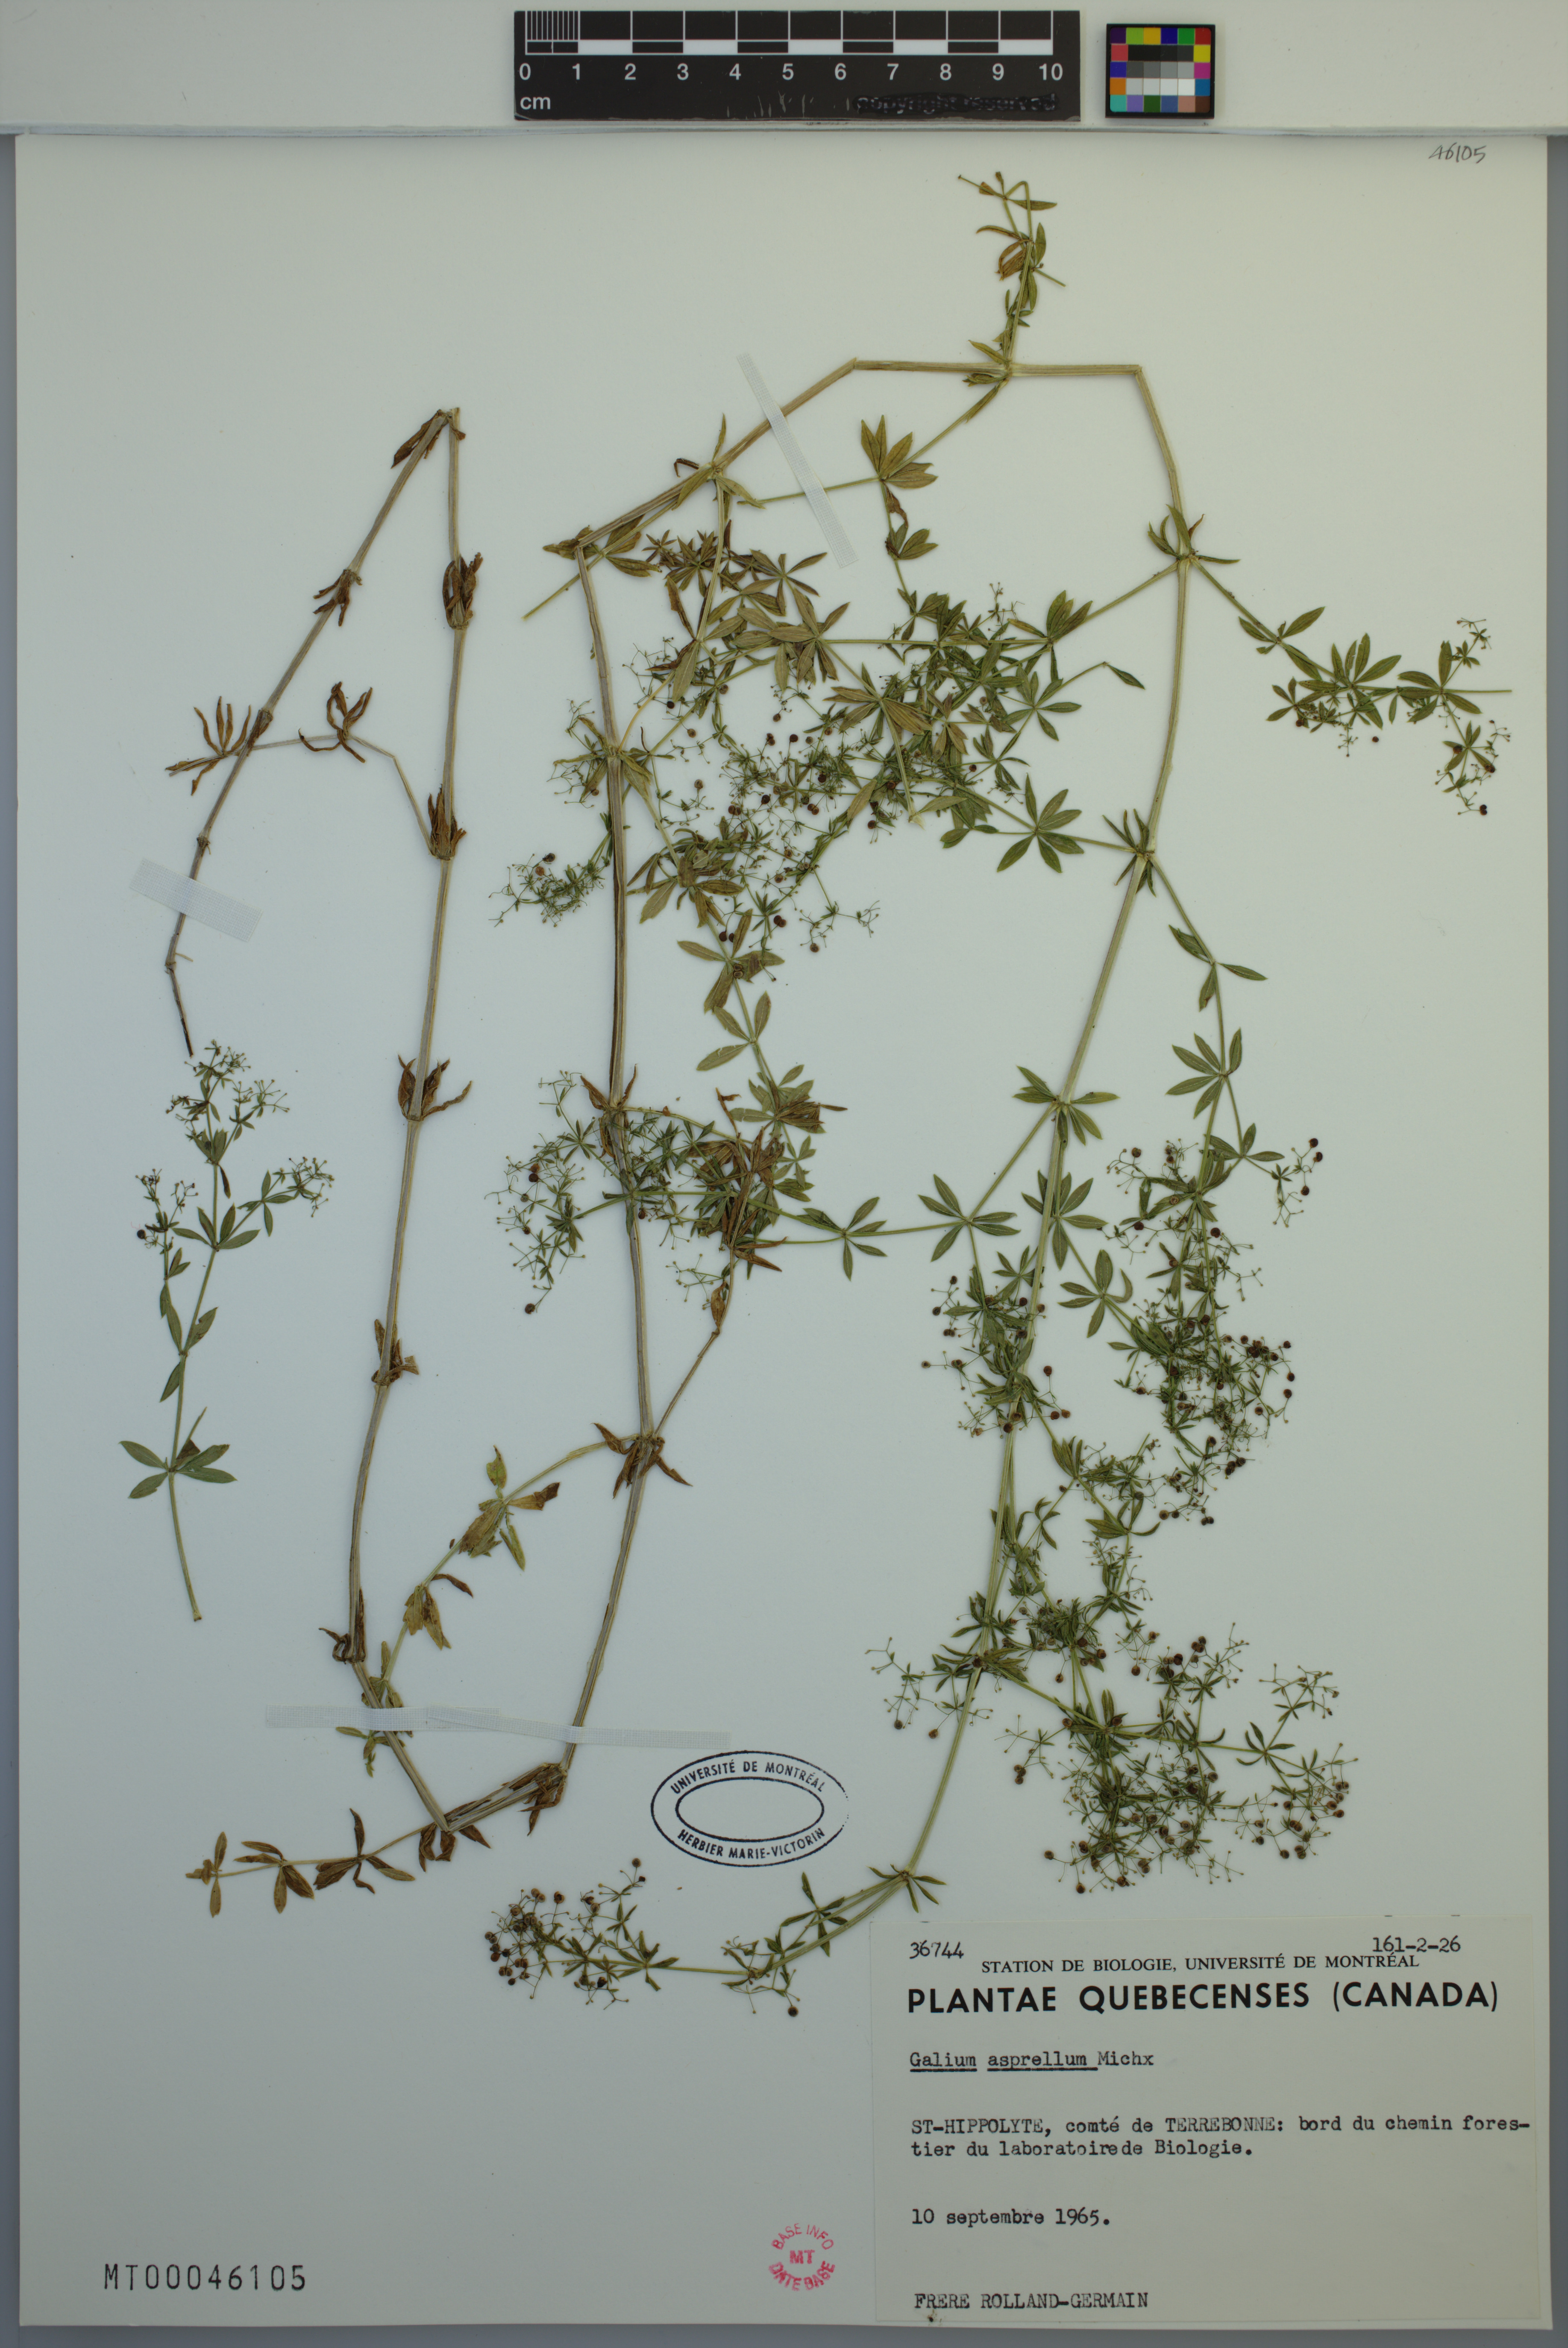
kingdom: Plantae
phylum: Tracheophyta
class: Magnoliopsida
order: Gentianales
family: Rubiaceae
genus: Galium
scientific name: Galium asprellum
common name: Rough bedstraw
